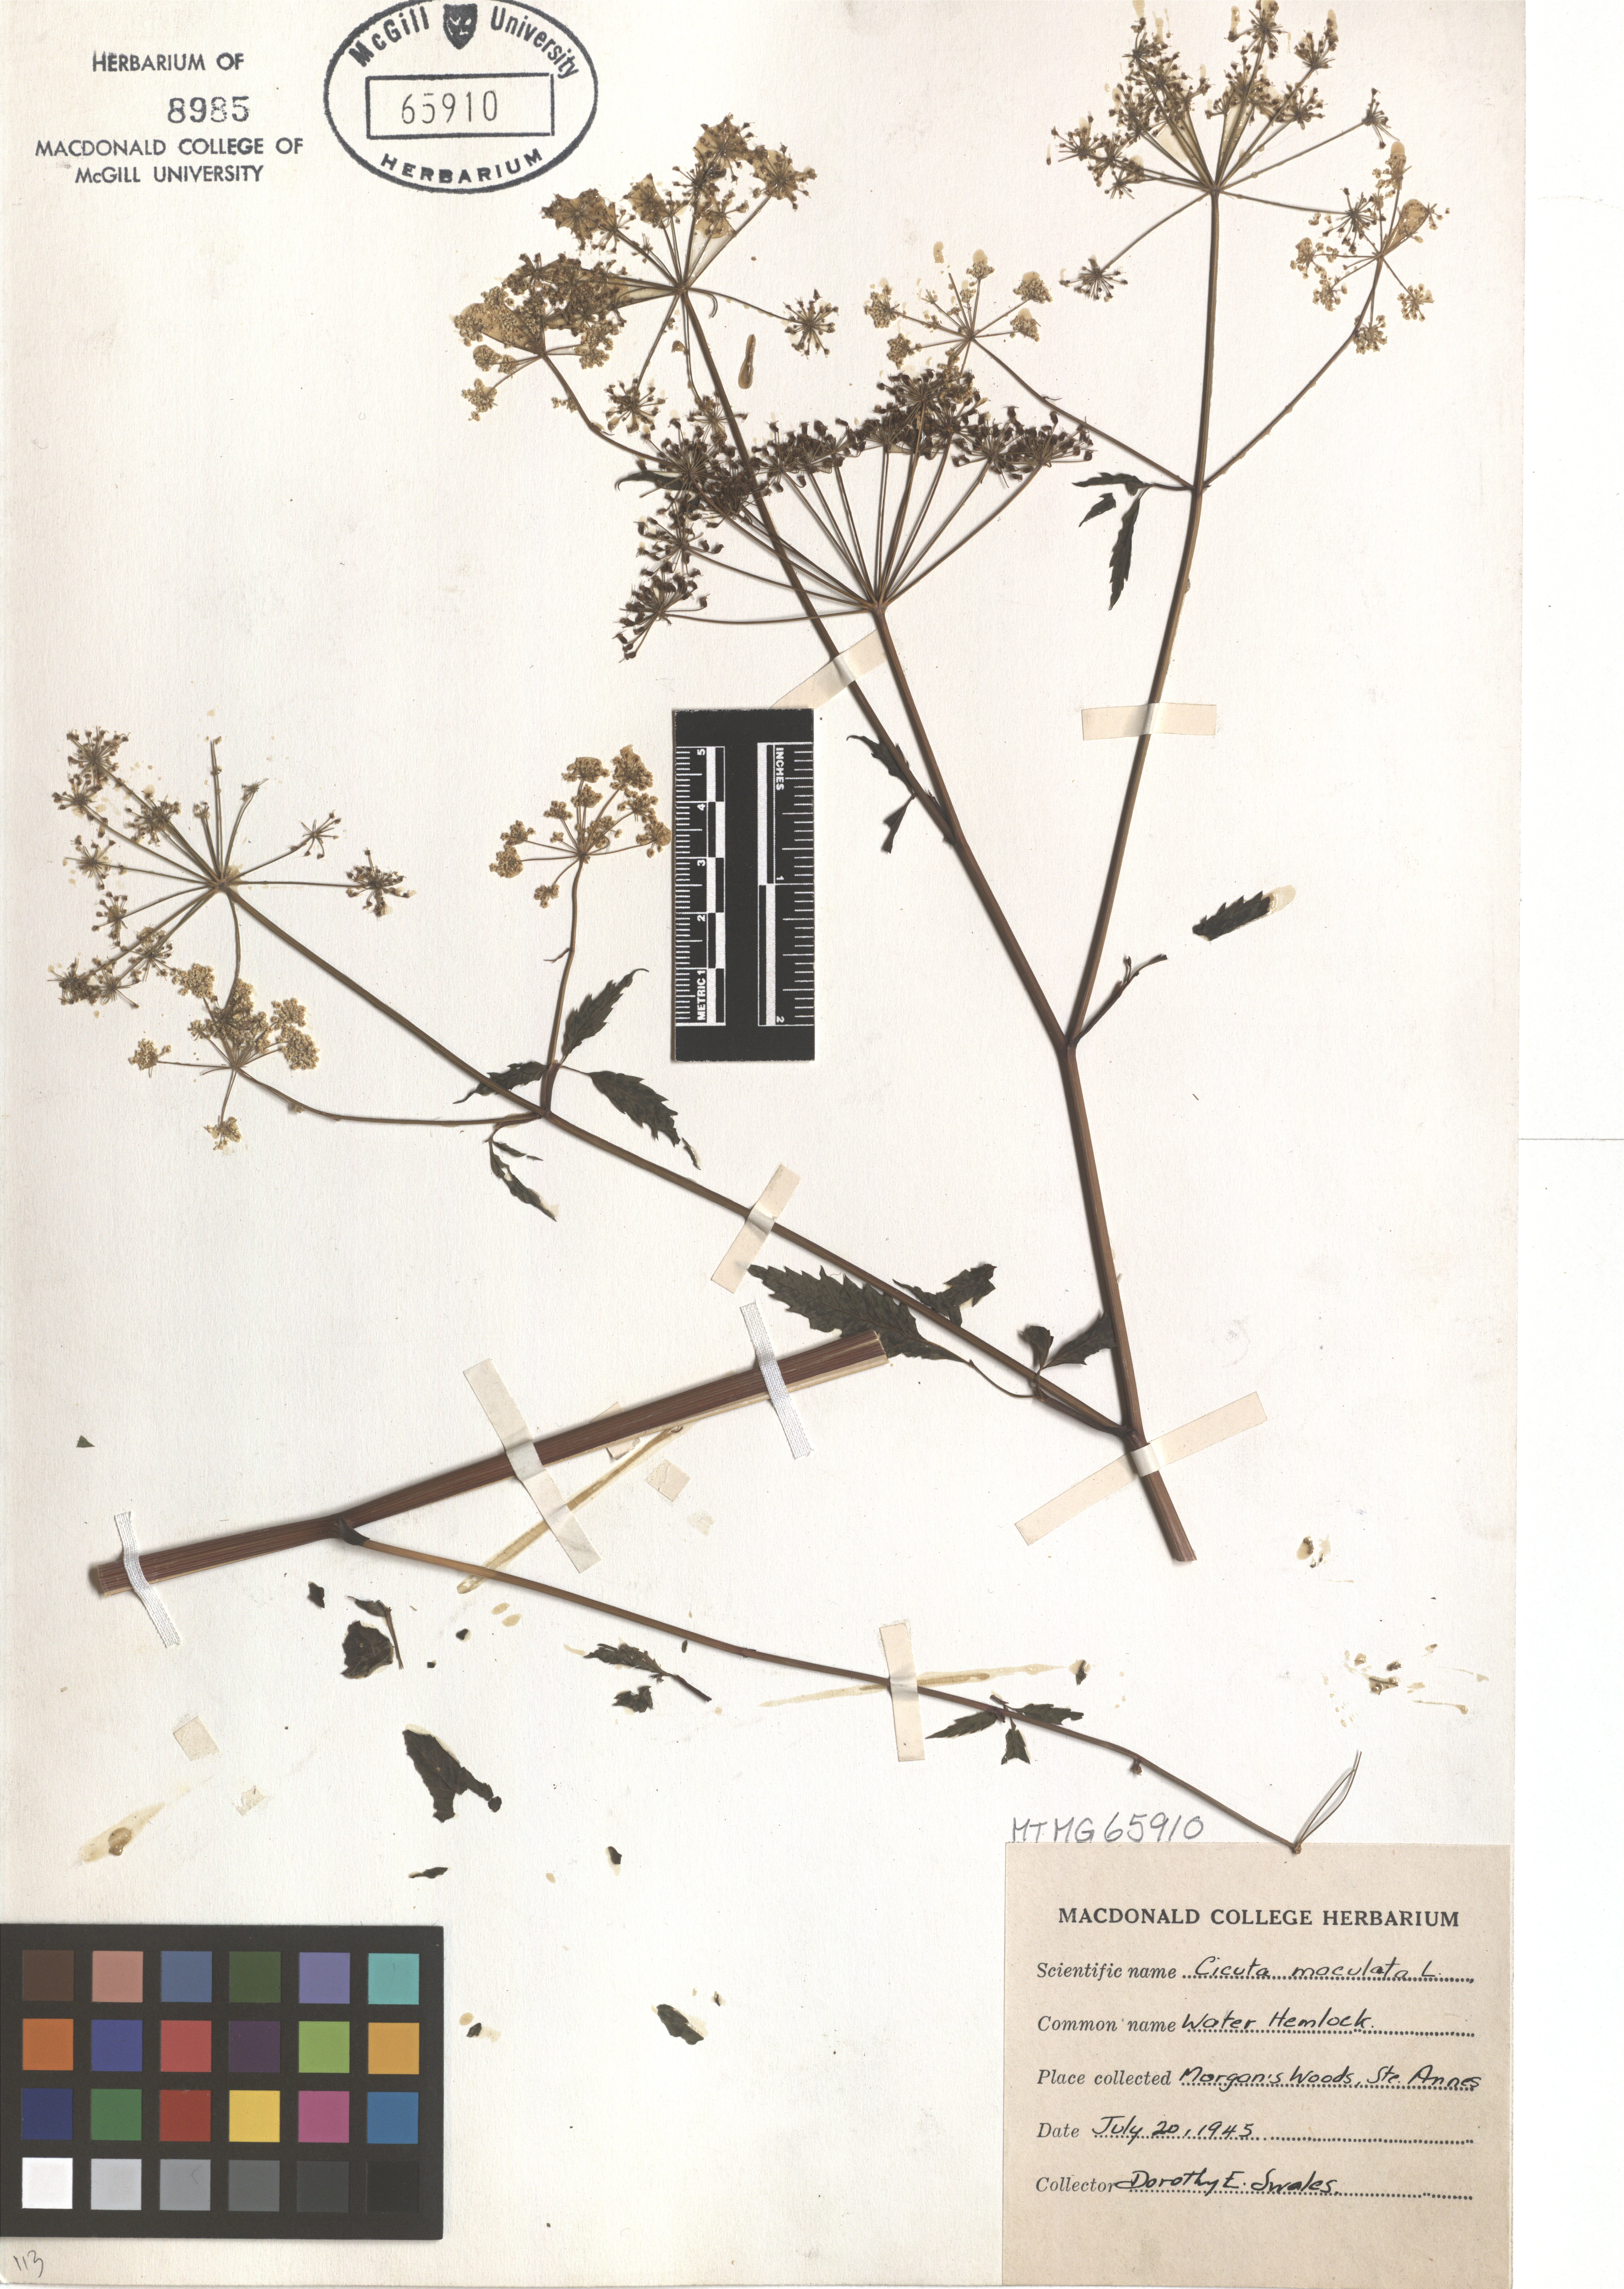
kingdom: Plantae
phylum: Tracheophyta
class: Magnoliopsida
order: Apiales
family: Apiaceae
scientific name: Apiaceae
